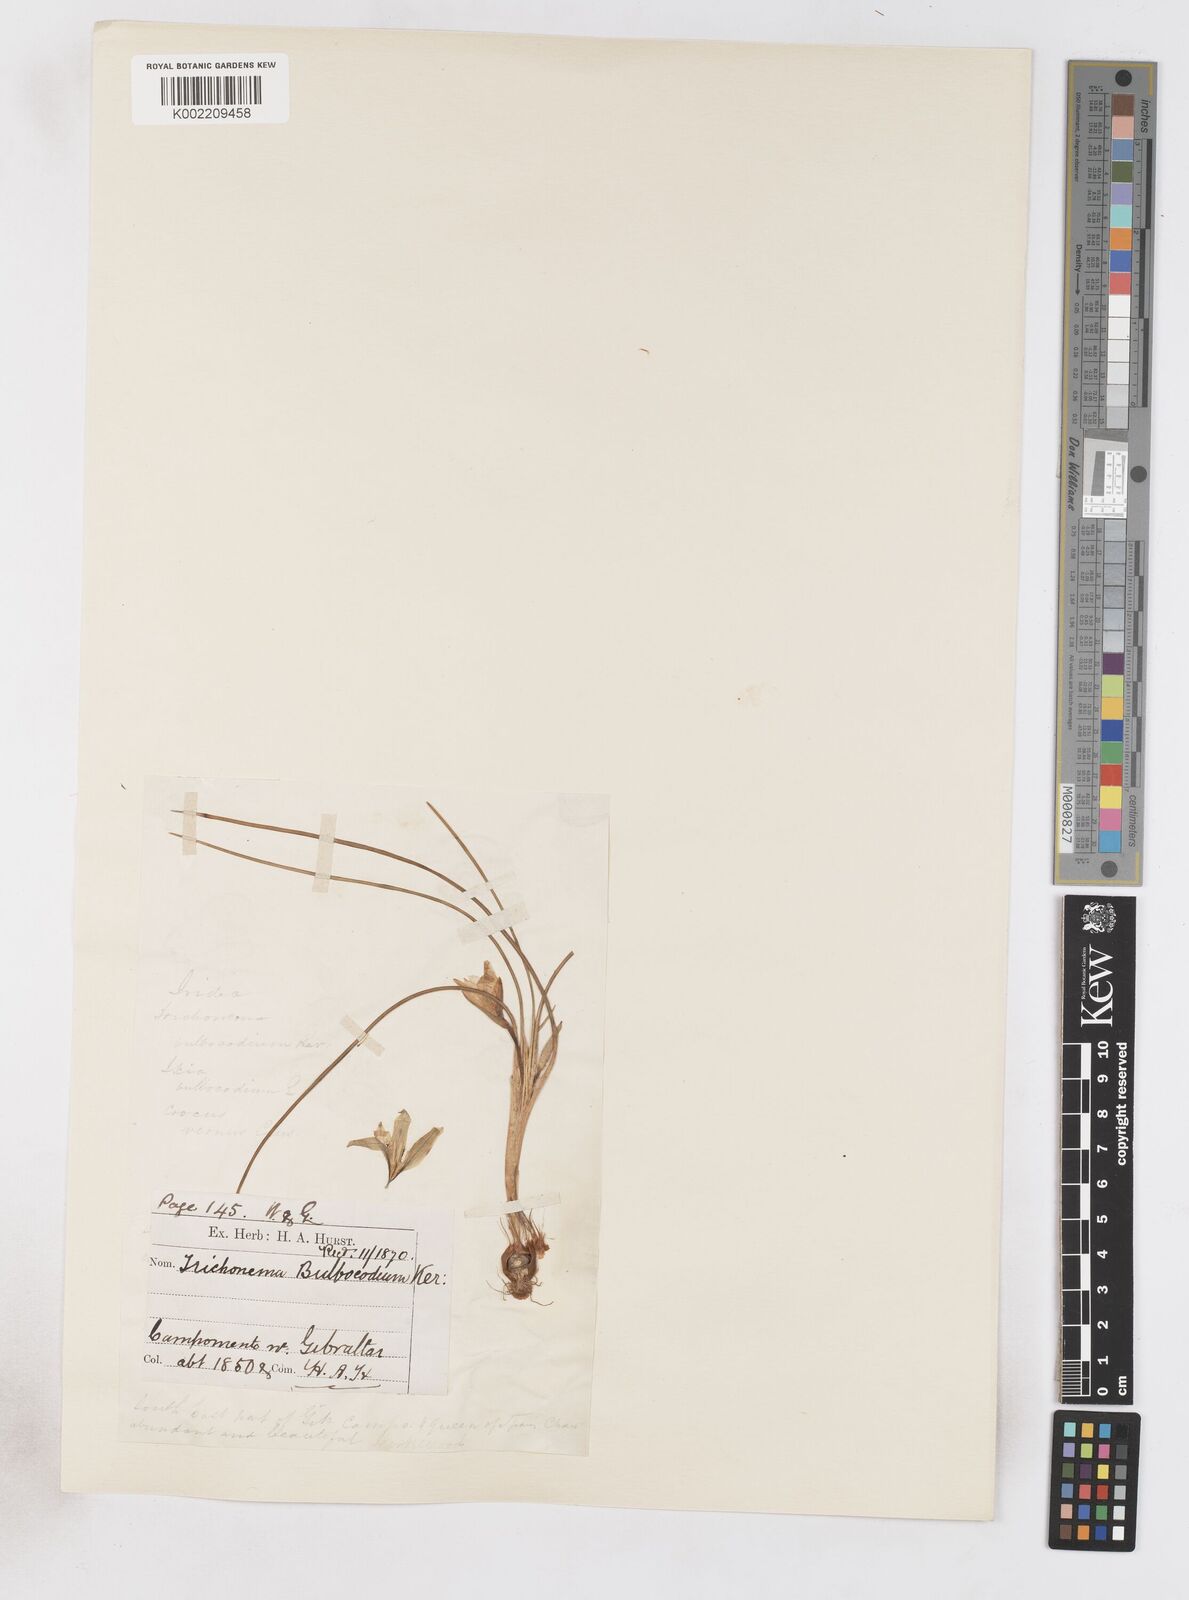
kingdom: Plantae
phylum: Tracheophyta
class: Liliopsida
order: Asparagales
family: Iridaceae
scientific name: Iridaceae
